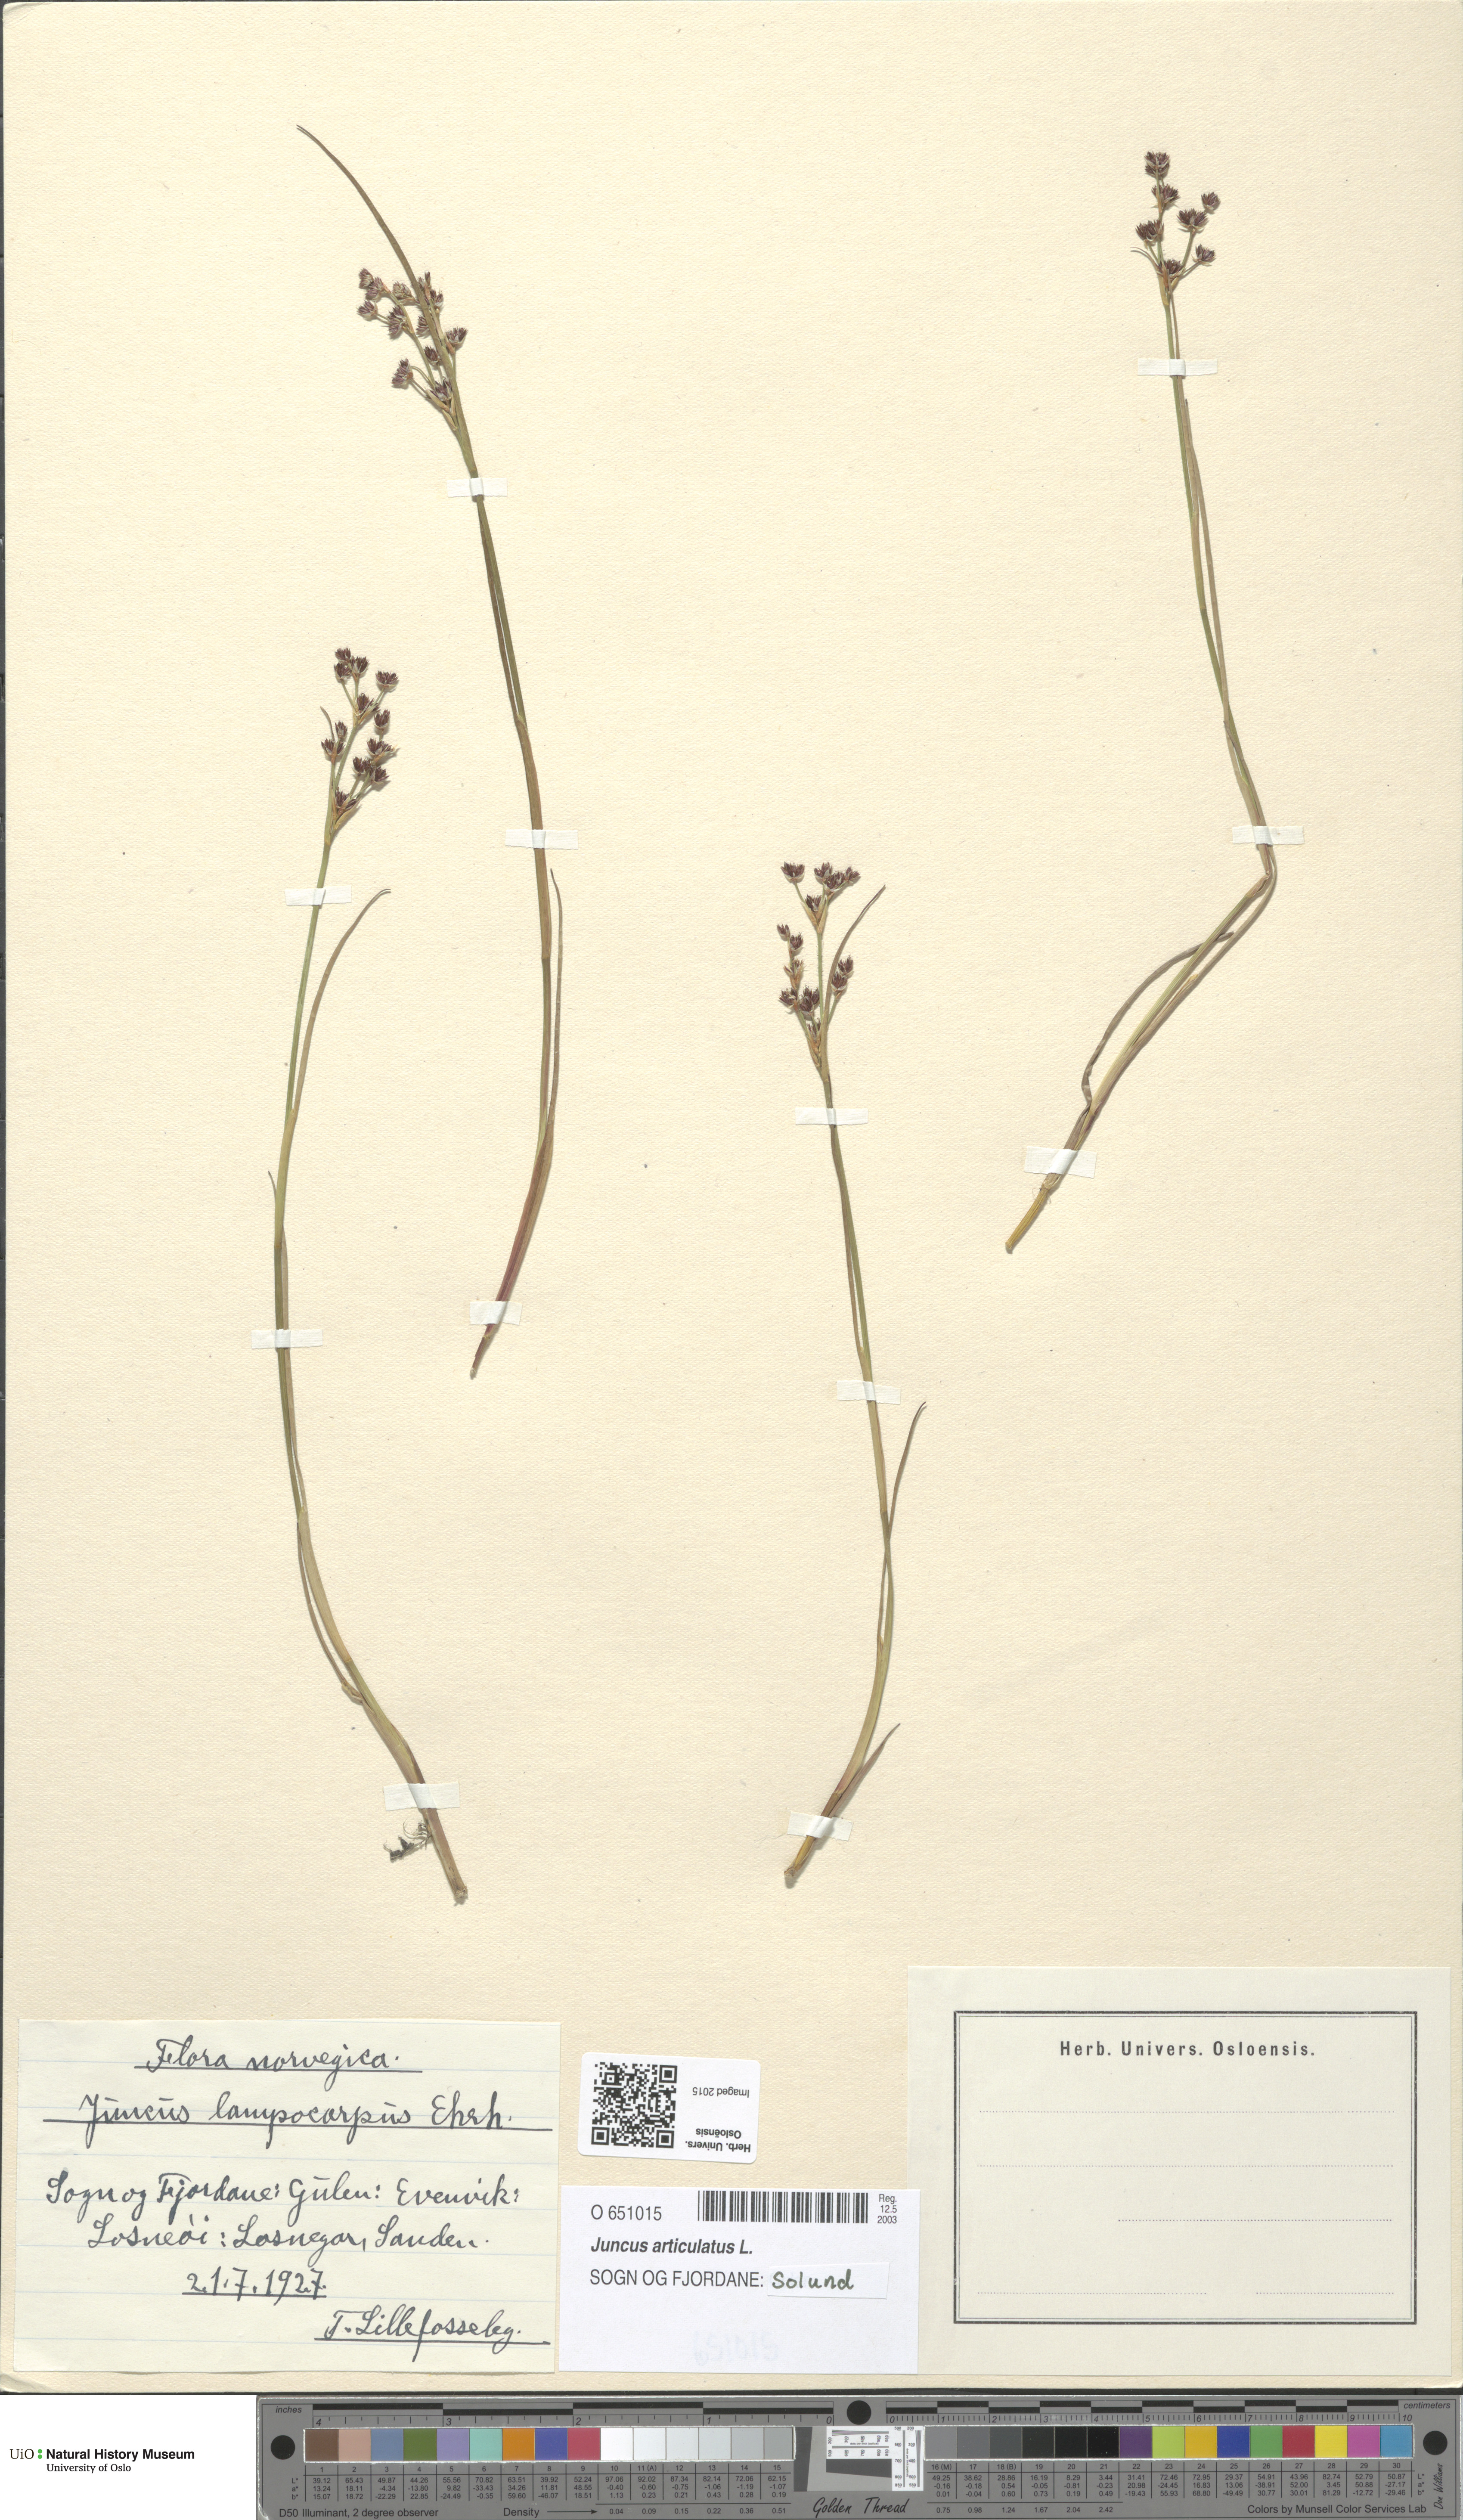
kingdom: Plantae
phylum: Tracheophyta
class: Liliopsida
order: Poales
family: Juncaceae
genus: Juncus
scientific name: Juncus articulatus
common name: Jointed rush
